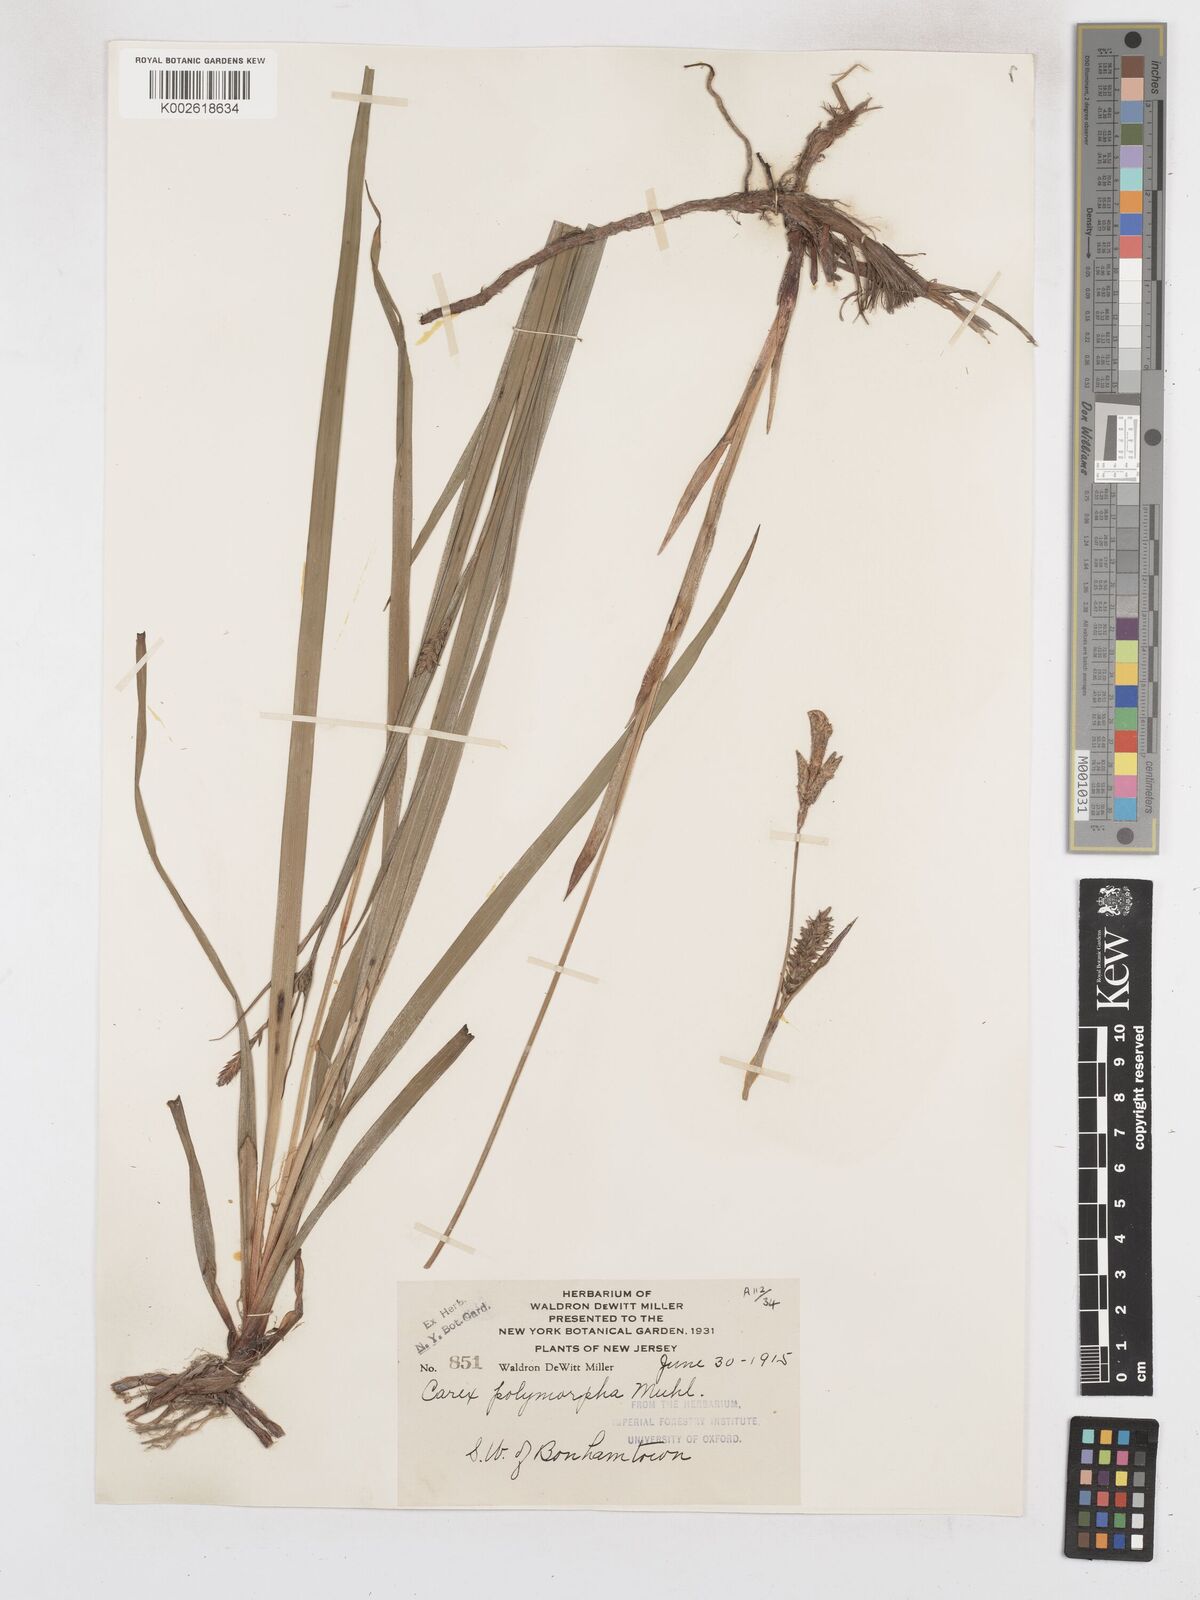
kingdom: Plantae
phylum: Tracheophyta
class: Liliopsida
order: Poales
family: Cyperaceae
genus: Carex
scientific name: Carex polymorpha
